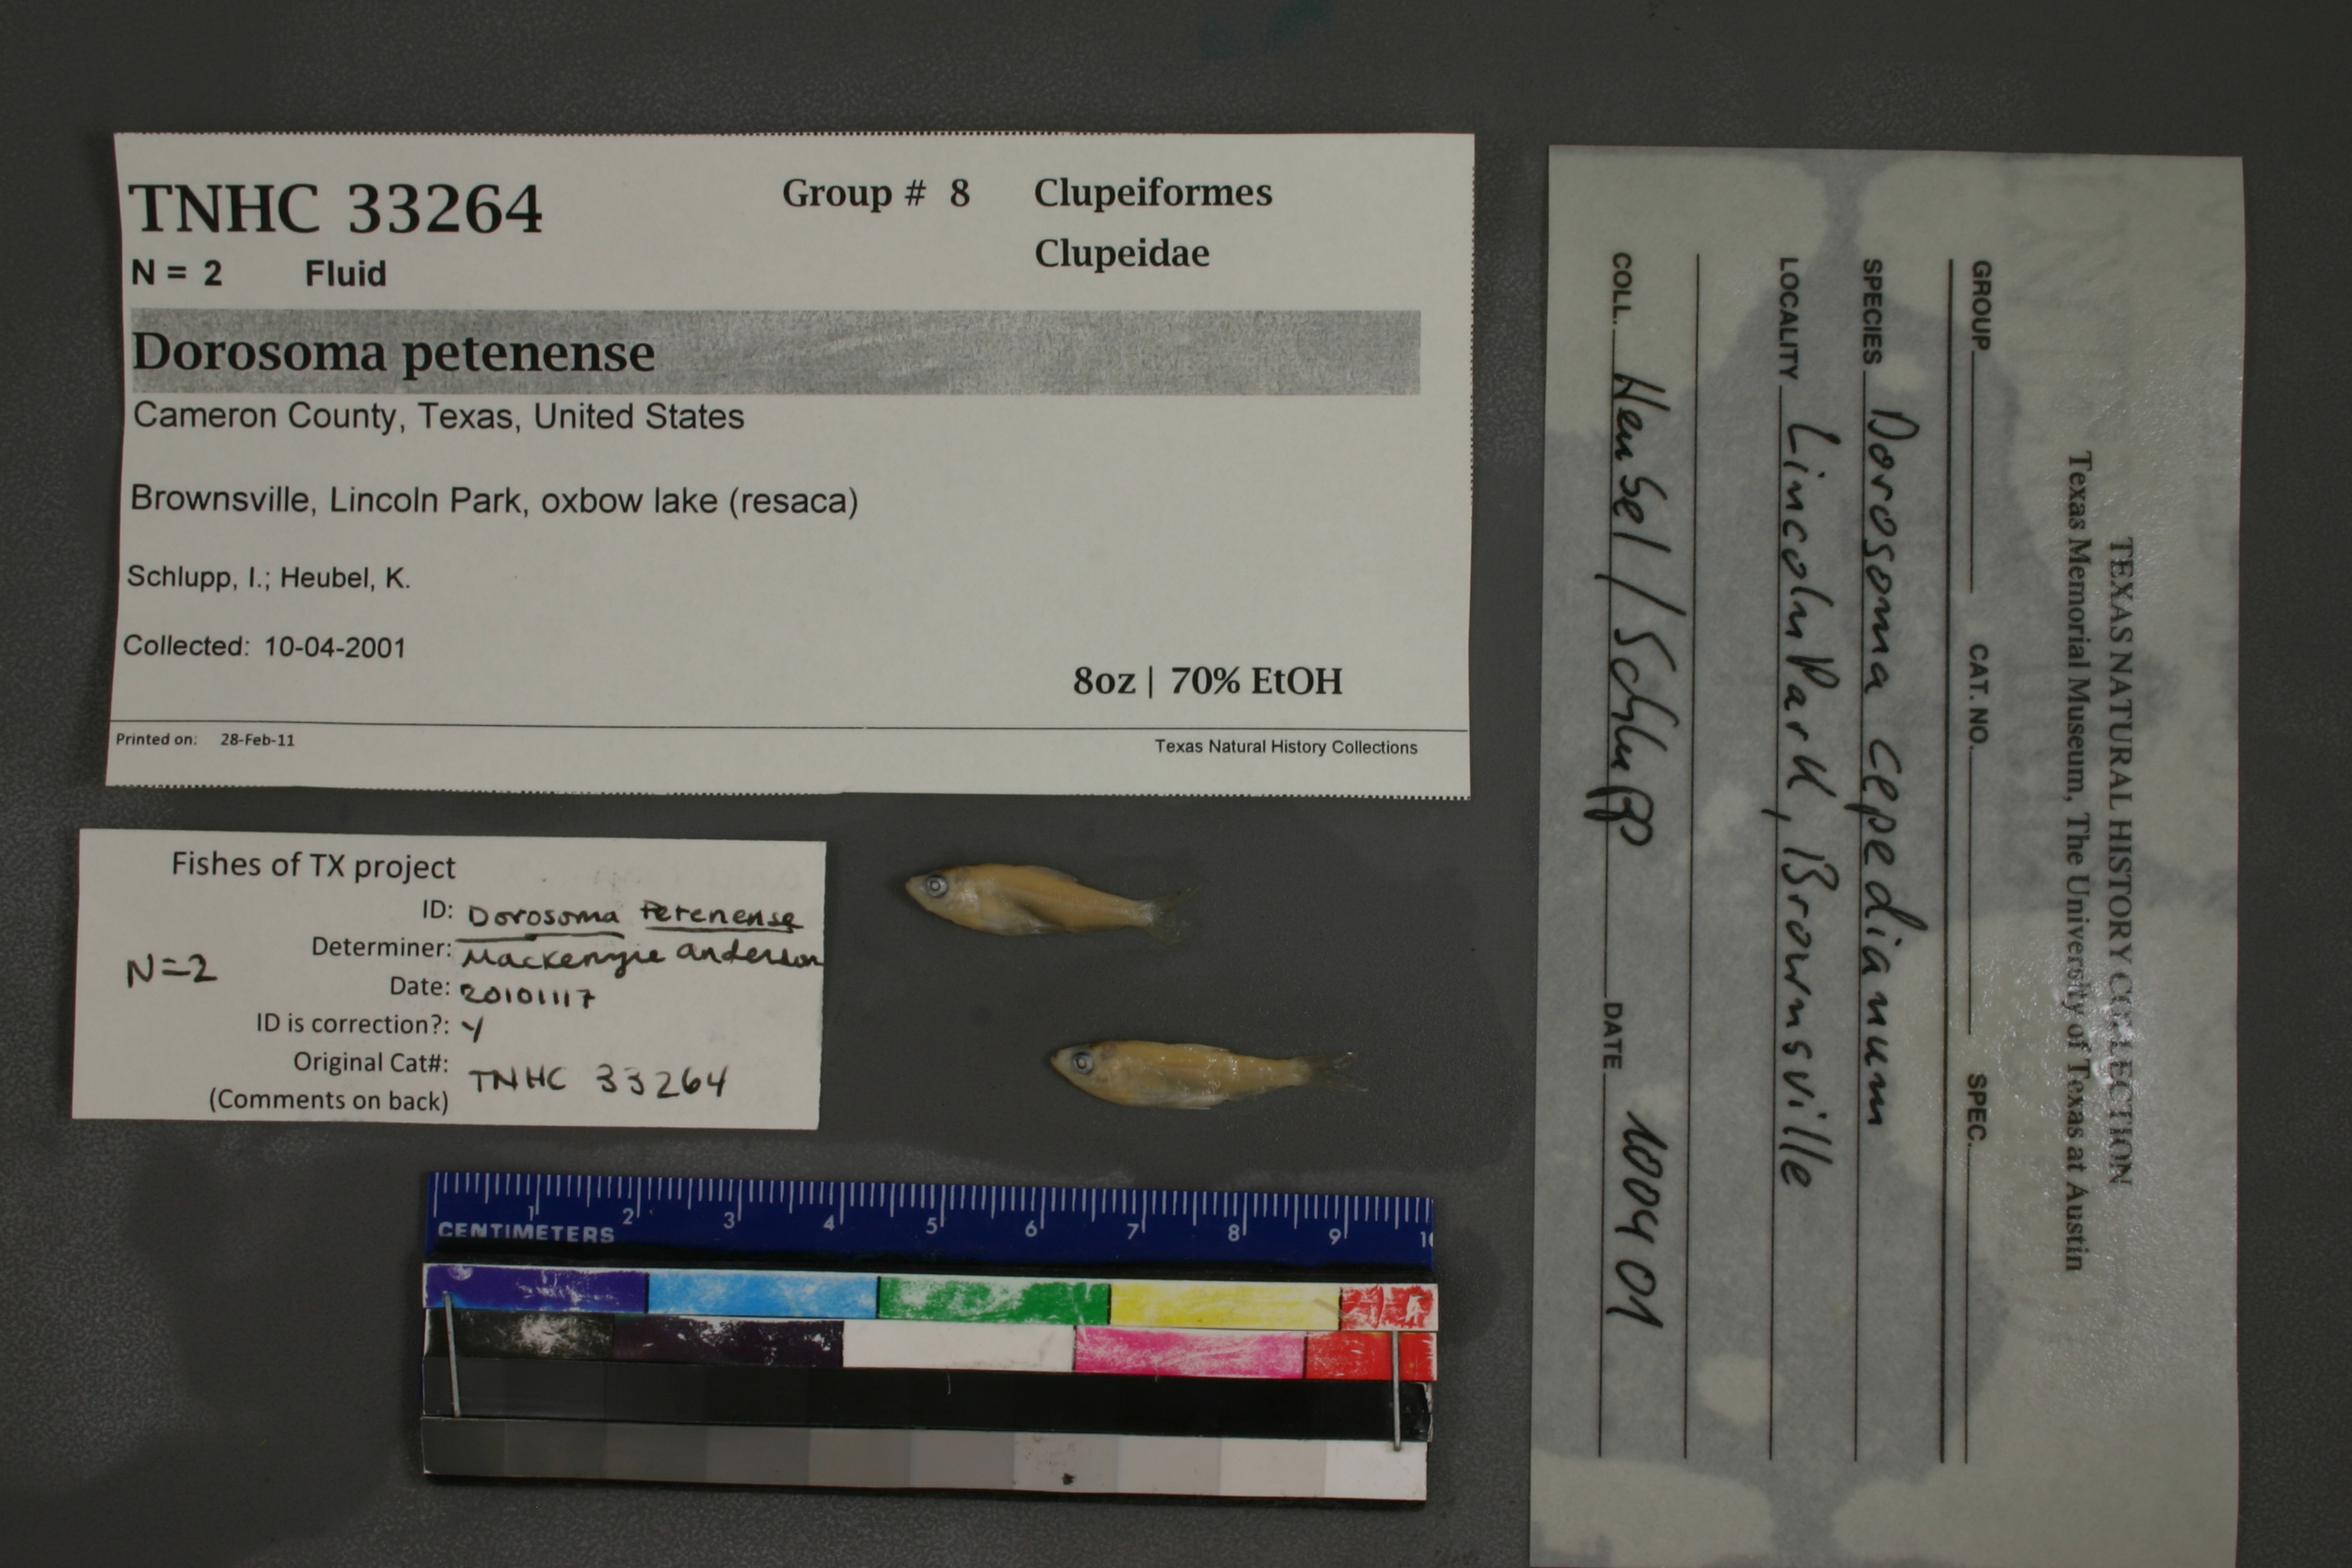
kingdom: Animalia
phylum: Chordata
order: Clupeiformes
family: Clupeidae
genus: Dorosoma
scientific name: Dorosoma petenense
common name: Threadfin shad
